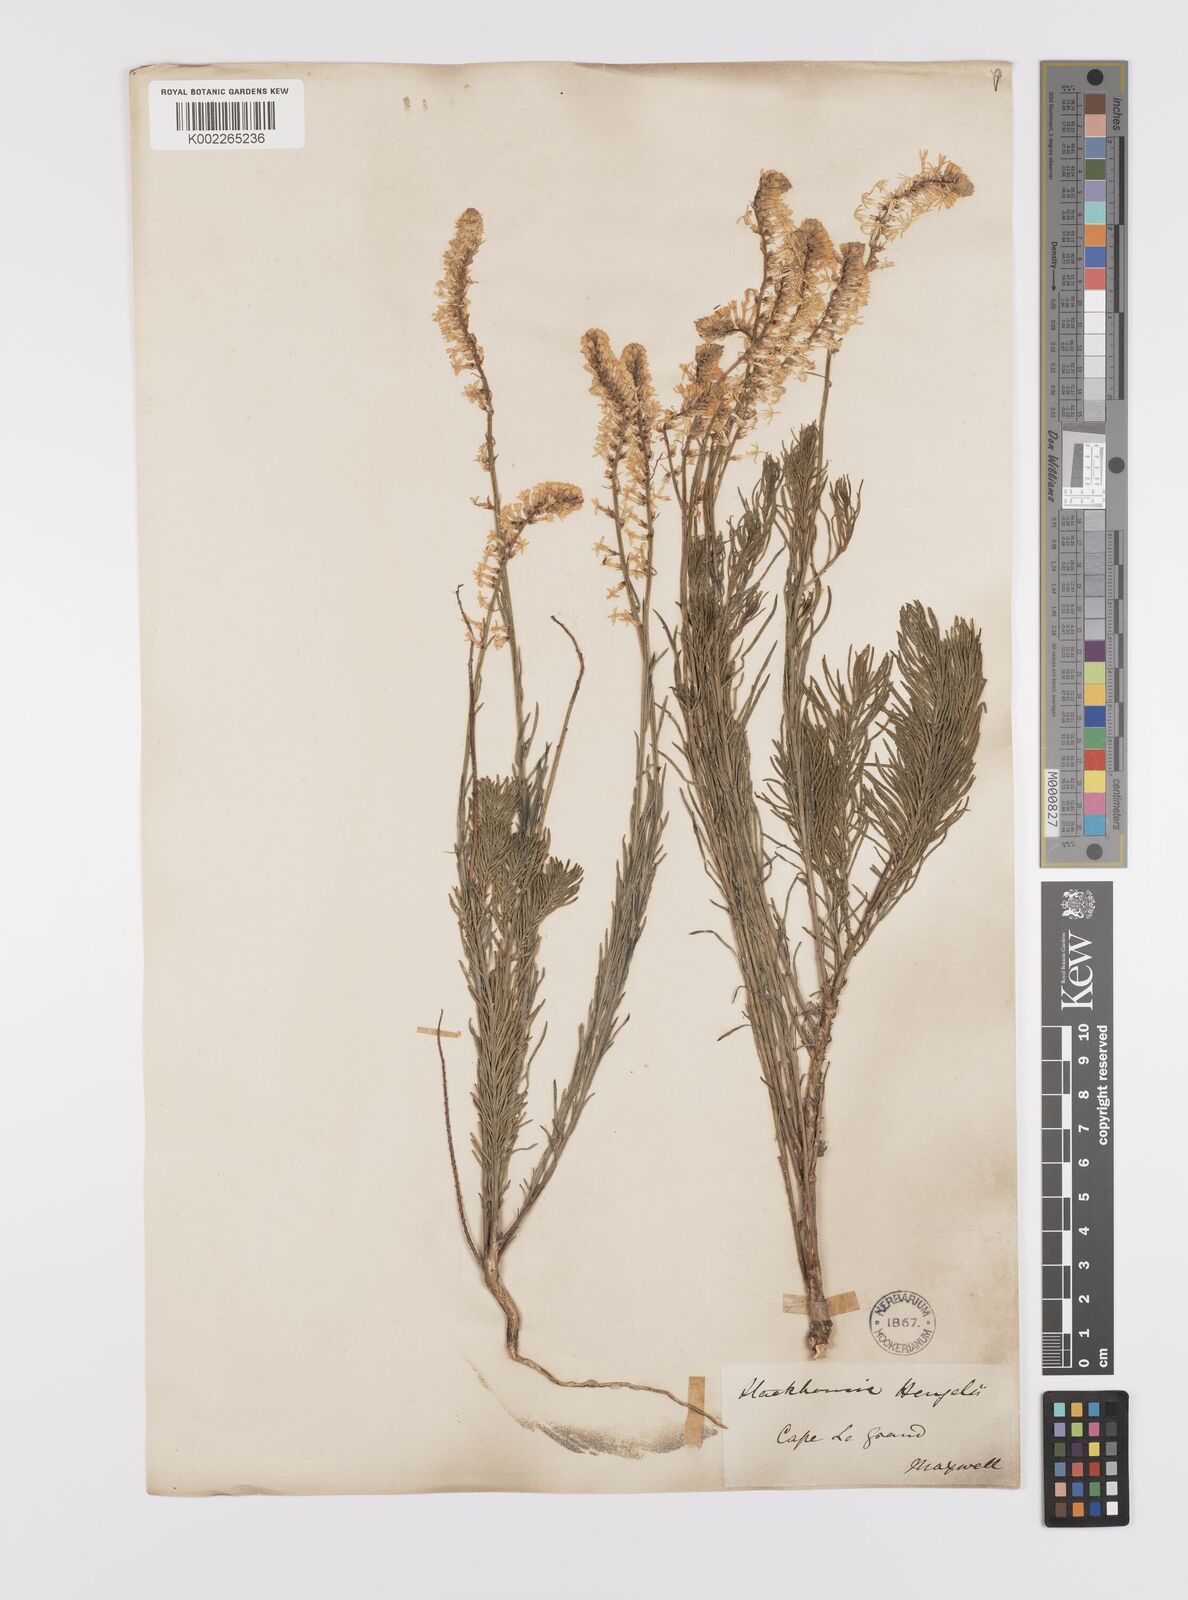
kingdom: Plantae
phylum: Tracheophyta
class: Magnoliopsida
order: Celastrales
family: Celastraceae
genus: Stackhousia
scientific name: Stackhousia monogyna
